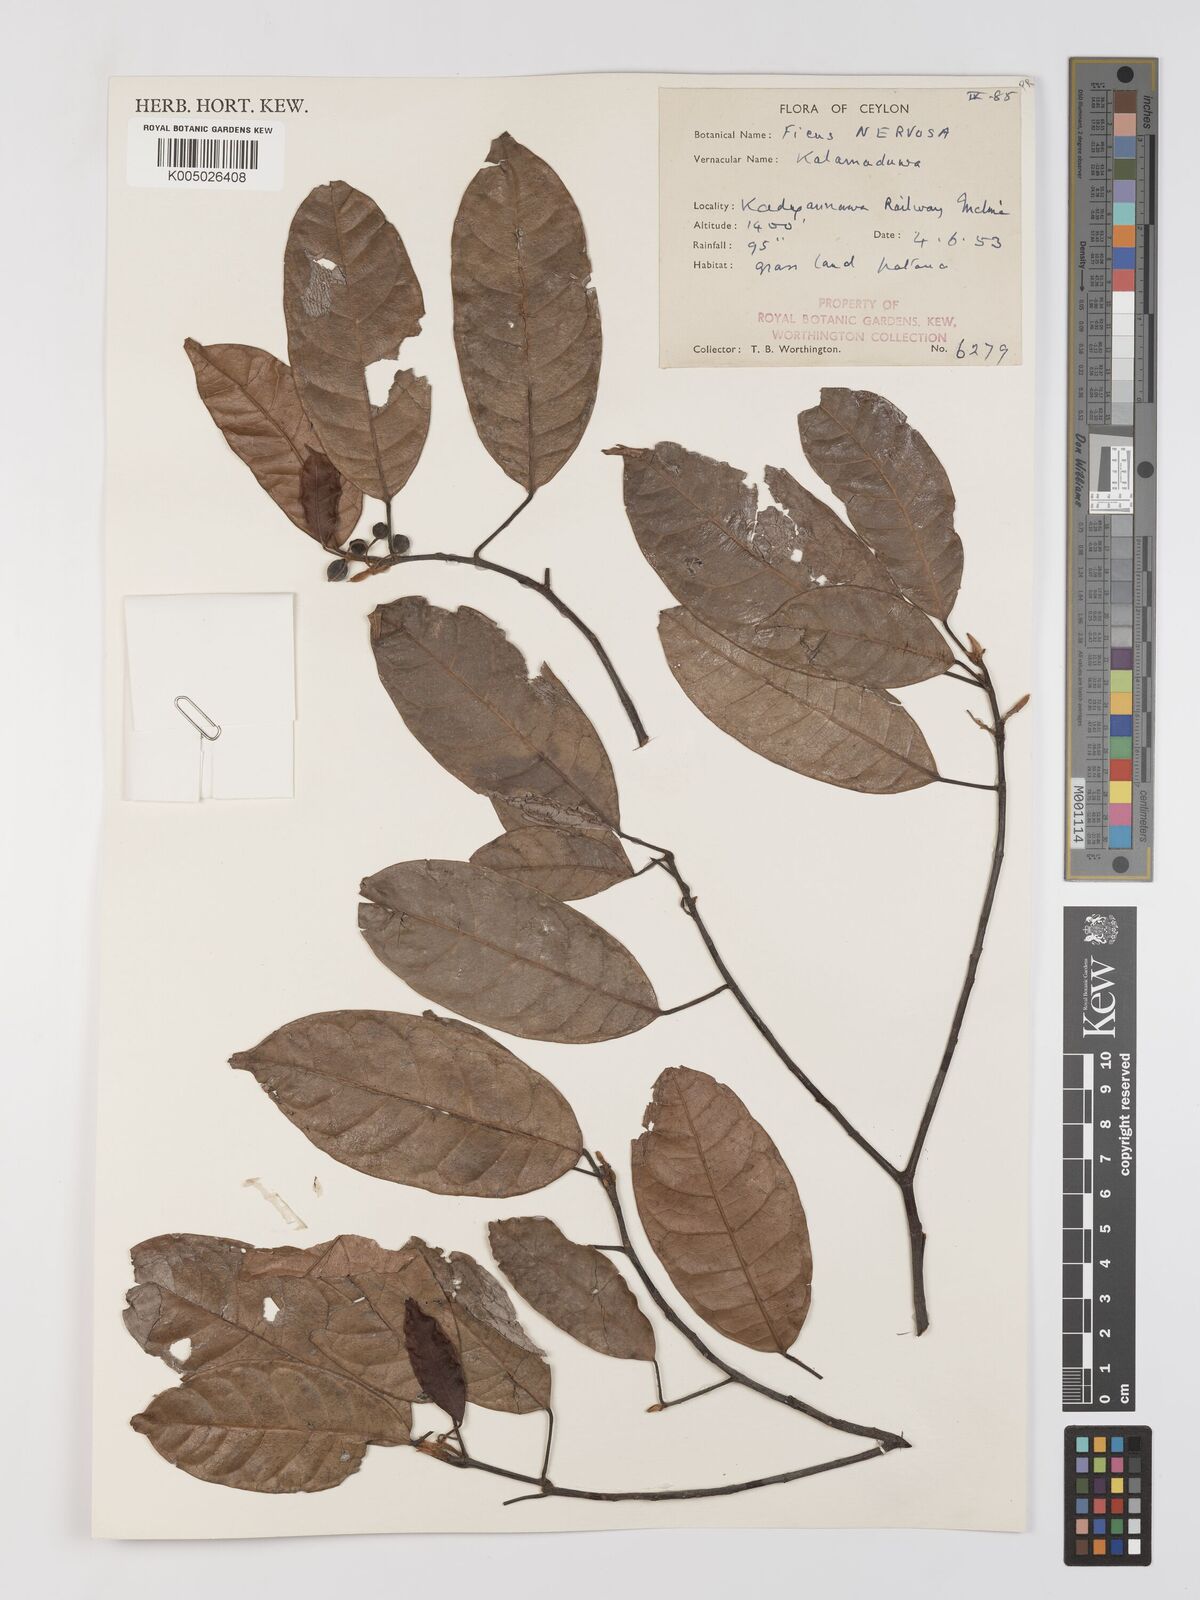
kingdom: Plantae
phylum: Tracheophyta
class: Magnoliopsida
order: Rosales
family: Moraceae
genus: Ficus
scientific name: Ficus nervosa
